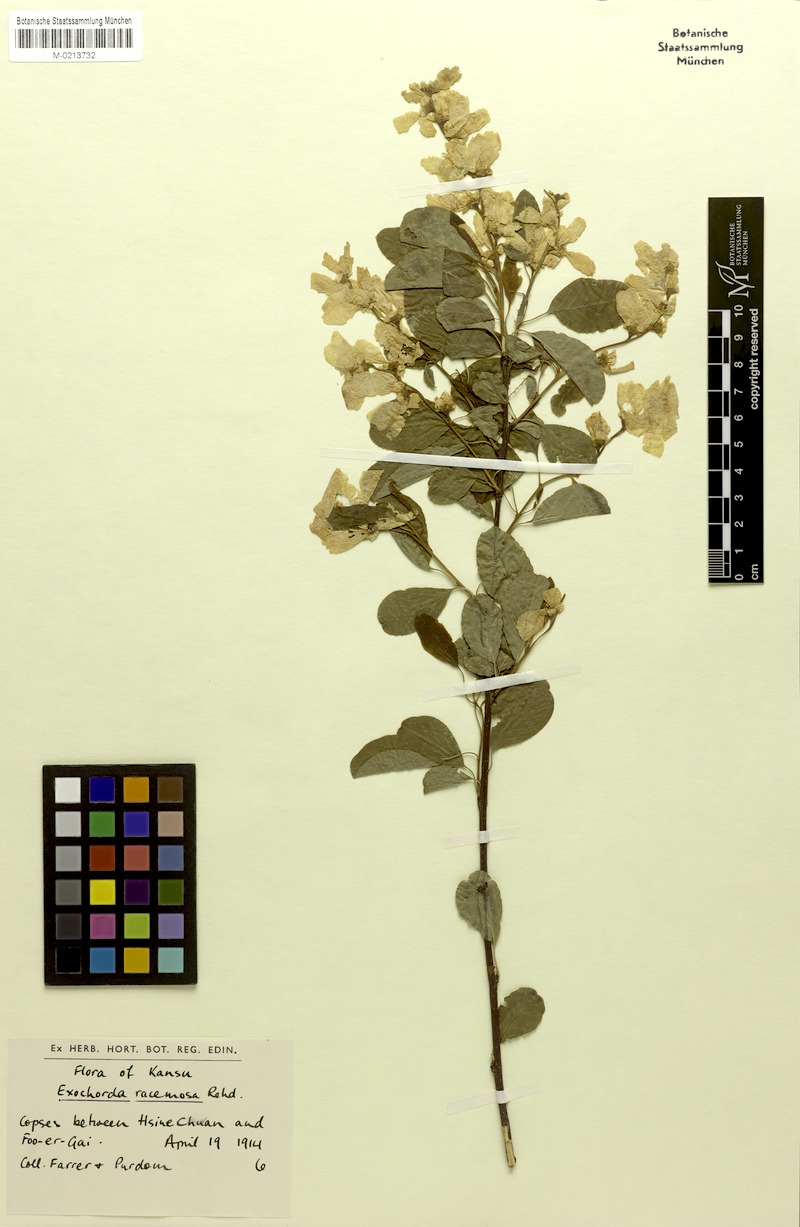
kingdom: Plantae
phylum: Tracheophyta
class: Magnoliopsida
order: Rosales
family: Rosaceae
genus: Exochorda
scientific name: Exochorda racemosa
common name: Common pearlbrush
